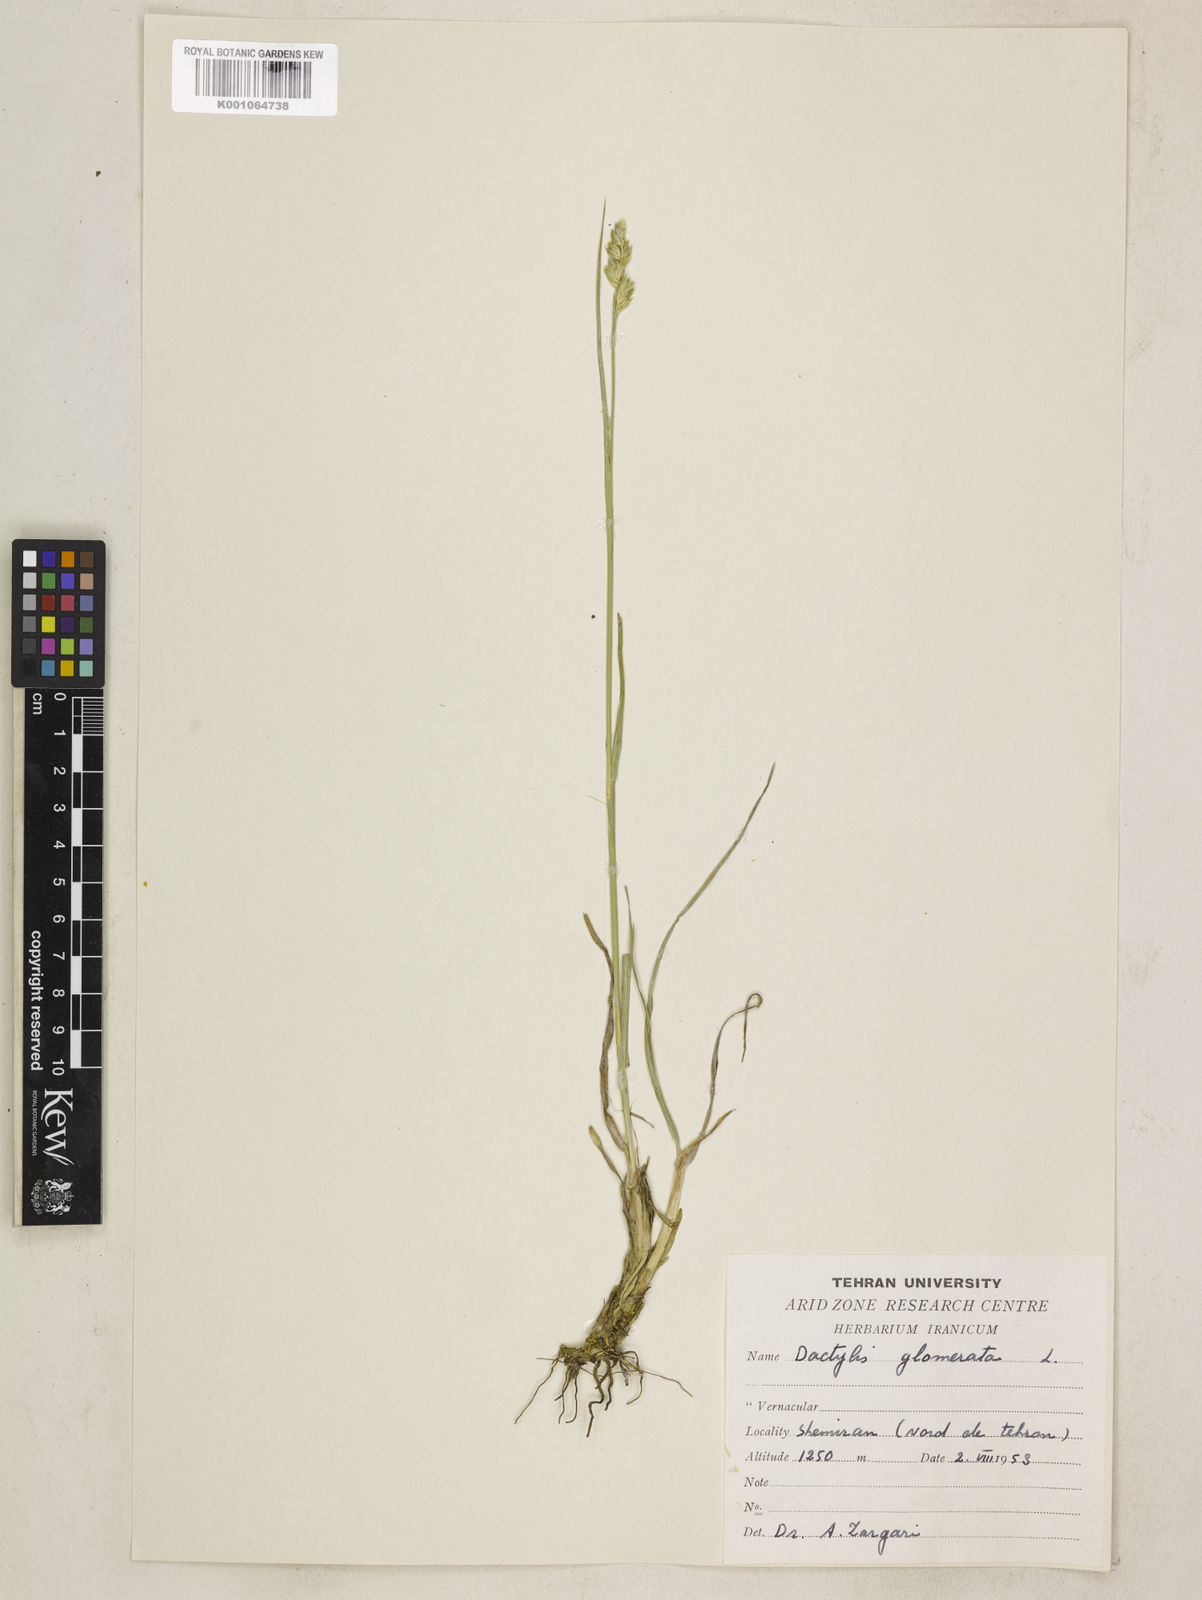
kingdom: Plantae
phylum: Tracheophyta
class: Liliopsida
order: Poales
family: Poaceae
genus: Dactylis
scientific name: Dactylis glomerata
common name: Orchardgrass
